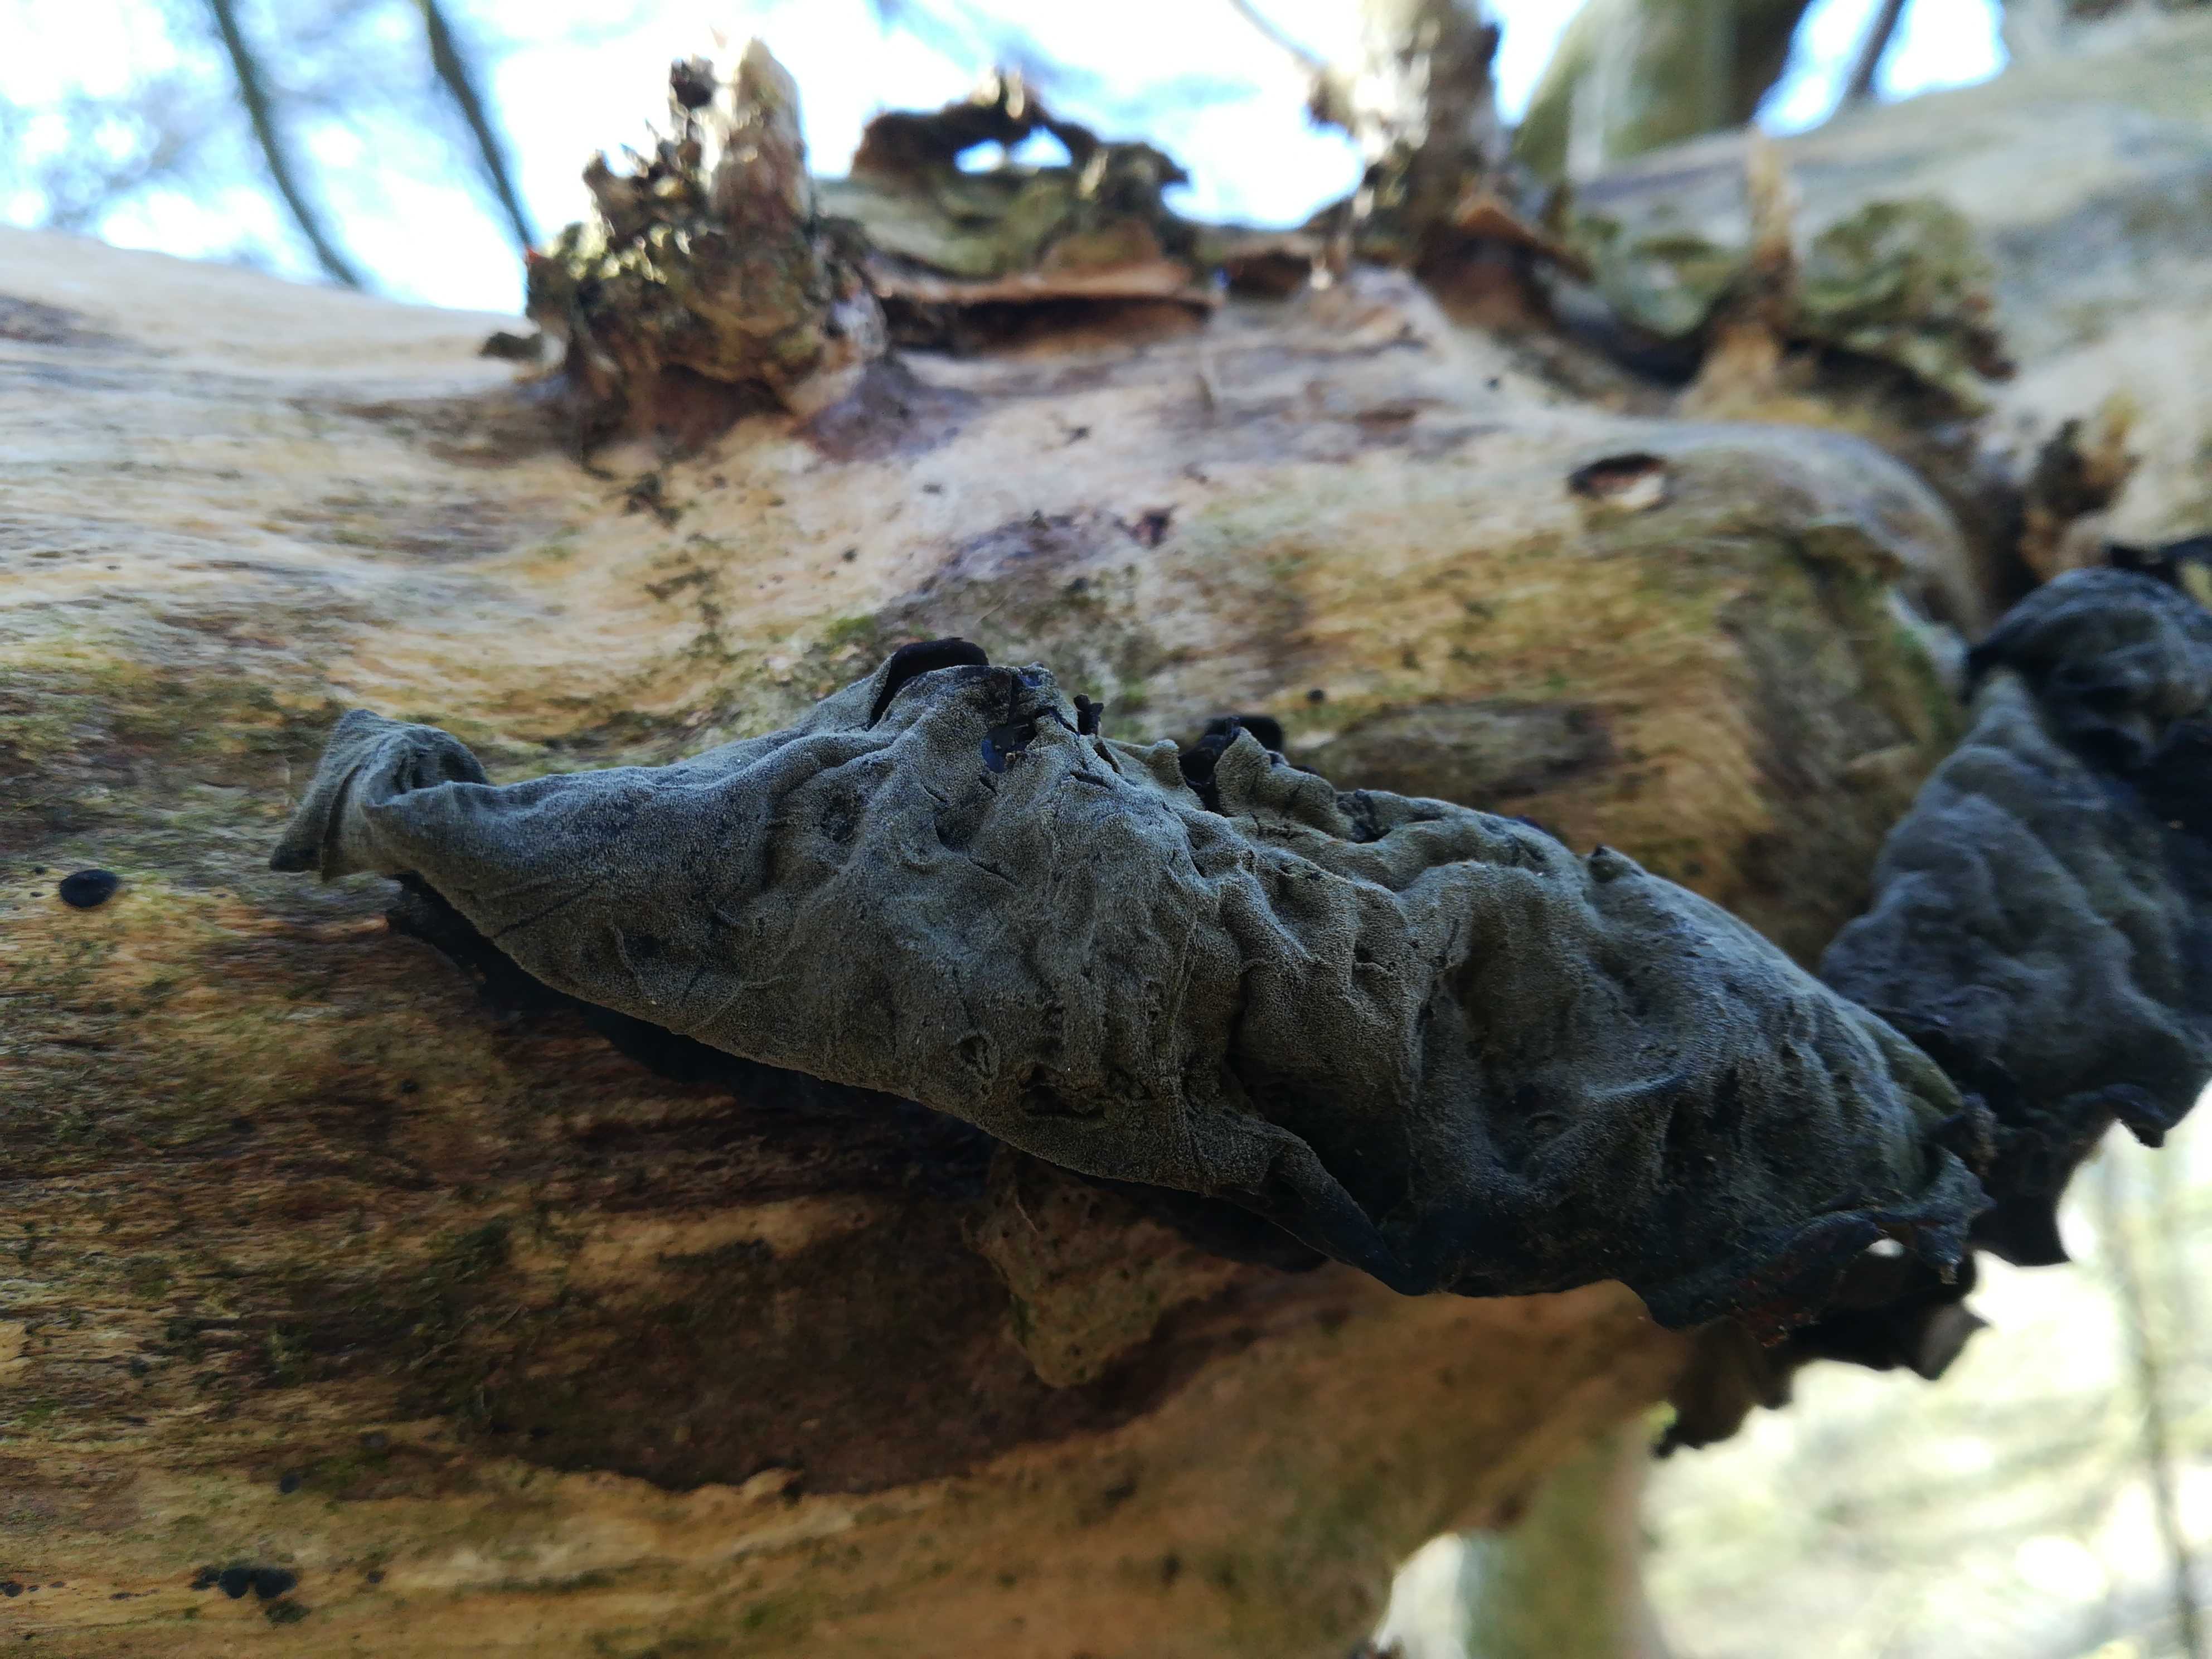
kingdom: Fungi
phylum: Basidiomycota
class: Agaricomycetes
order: Auriculariales
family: Auriculariaceae
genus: Auricularia
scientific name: Auricularia auricula-judae
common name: almindelig judasøre
